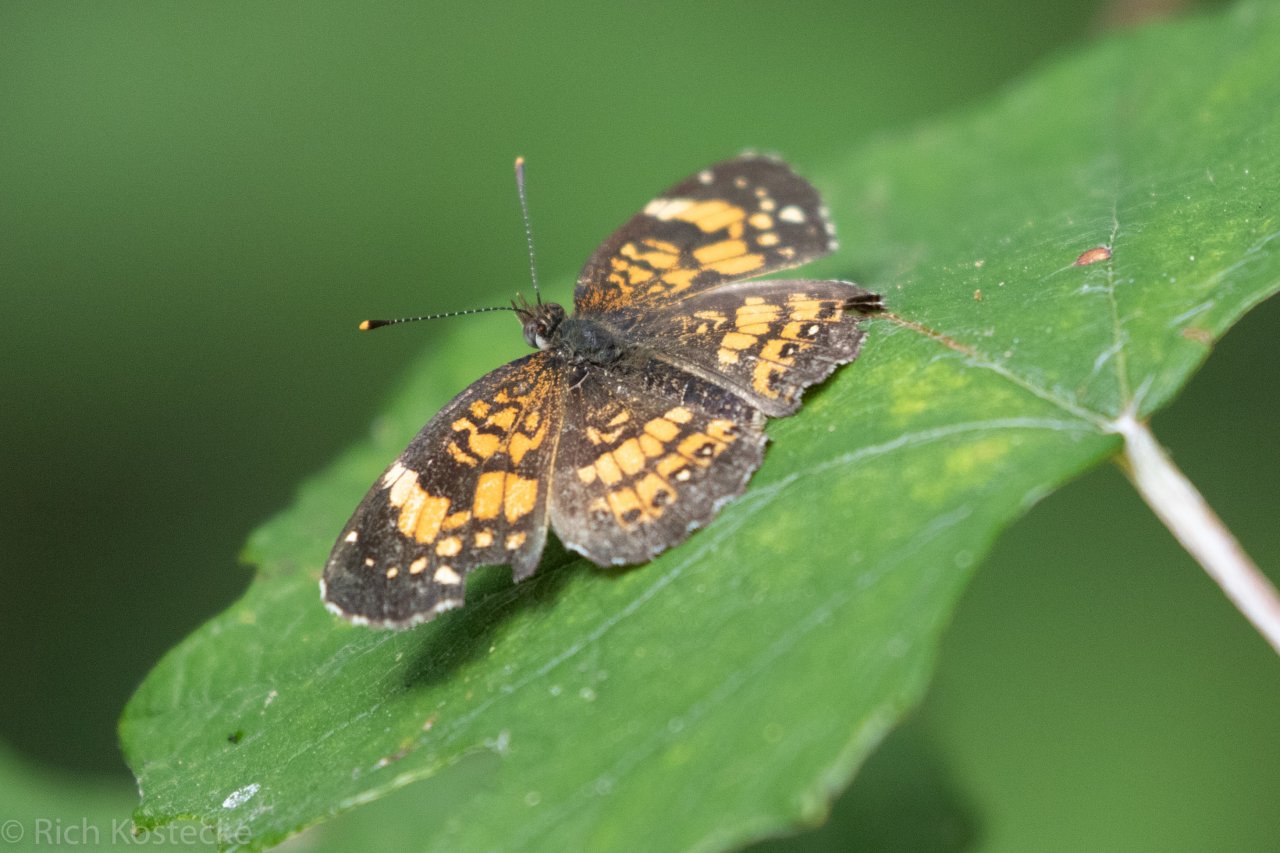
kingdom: Animalia
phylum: Arthropoda
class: Insecta
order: Lepidoptera
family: Nymphalidae
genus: Chlosyne
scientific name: Chlosyne nycteis
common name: Silvery Checkerspot
